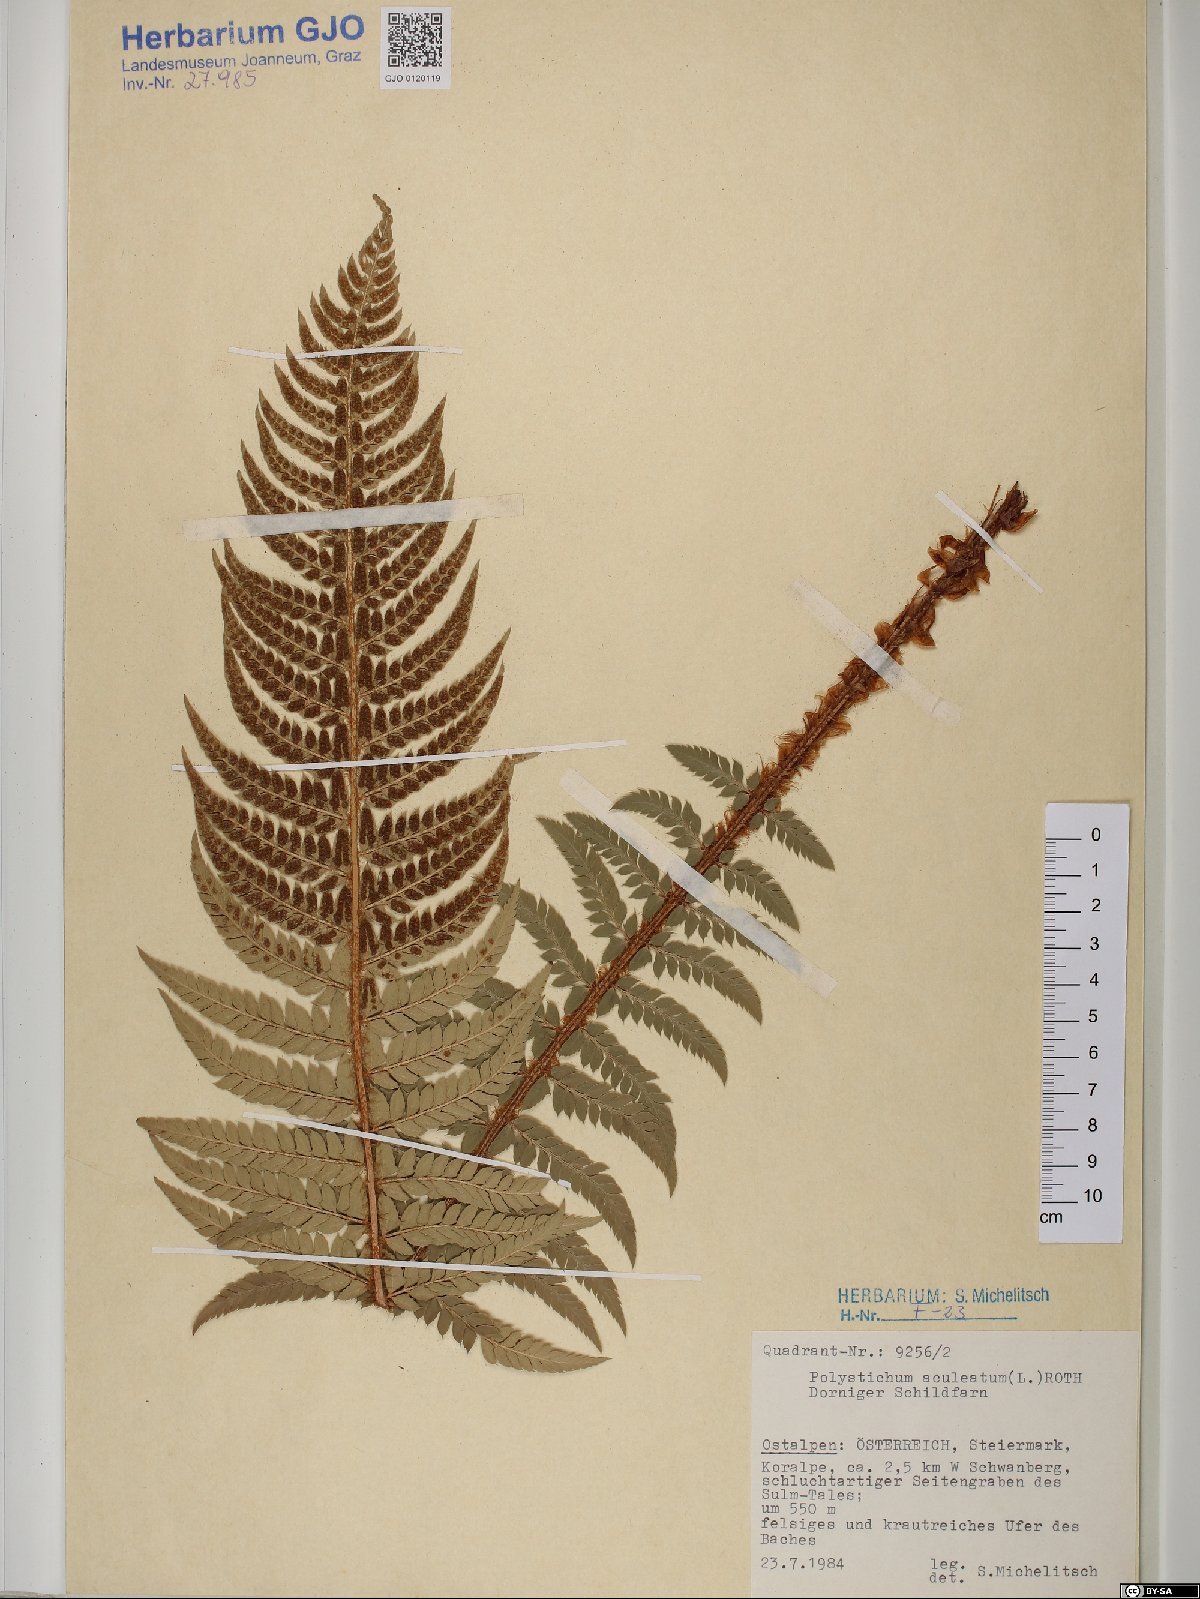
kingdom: Plantae
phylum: Tracheophyta
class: Polypodiopsida
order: Polypodiales
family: Dryopteridaceae
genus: Polystichum
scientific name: Polystichum aculeatum
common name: Hard shield-fern
